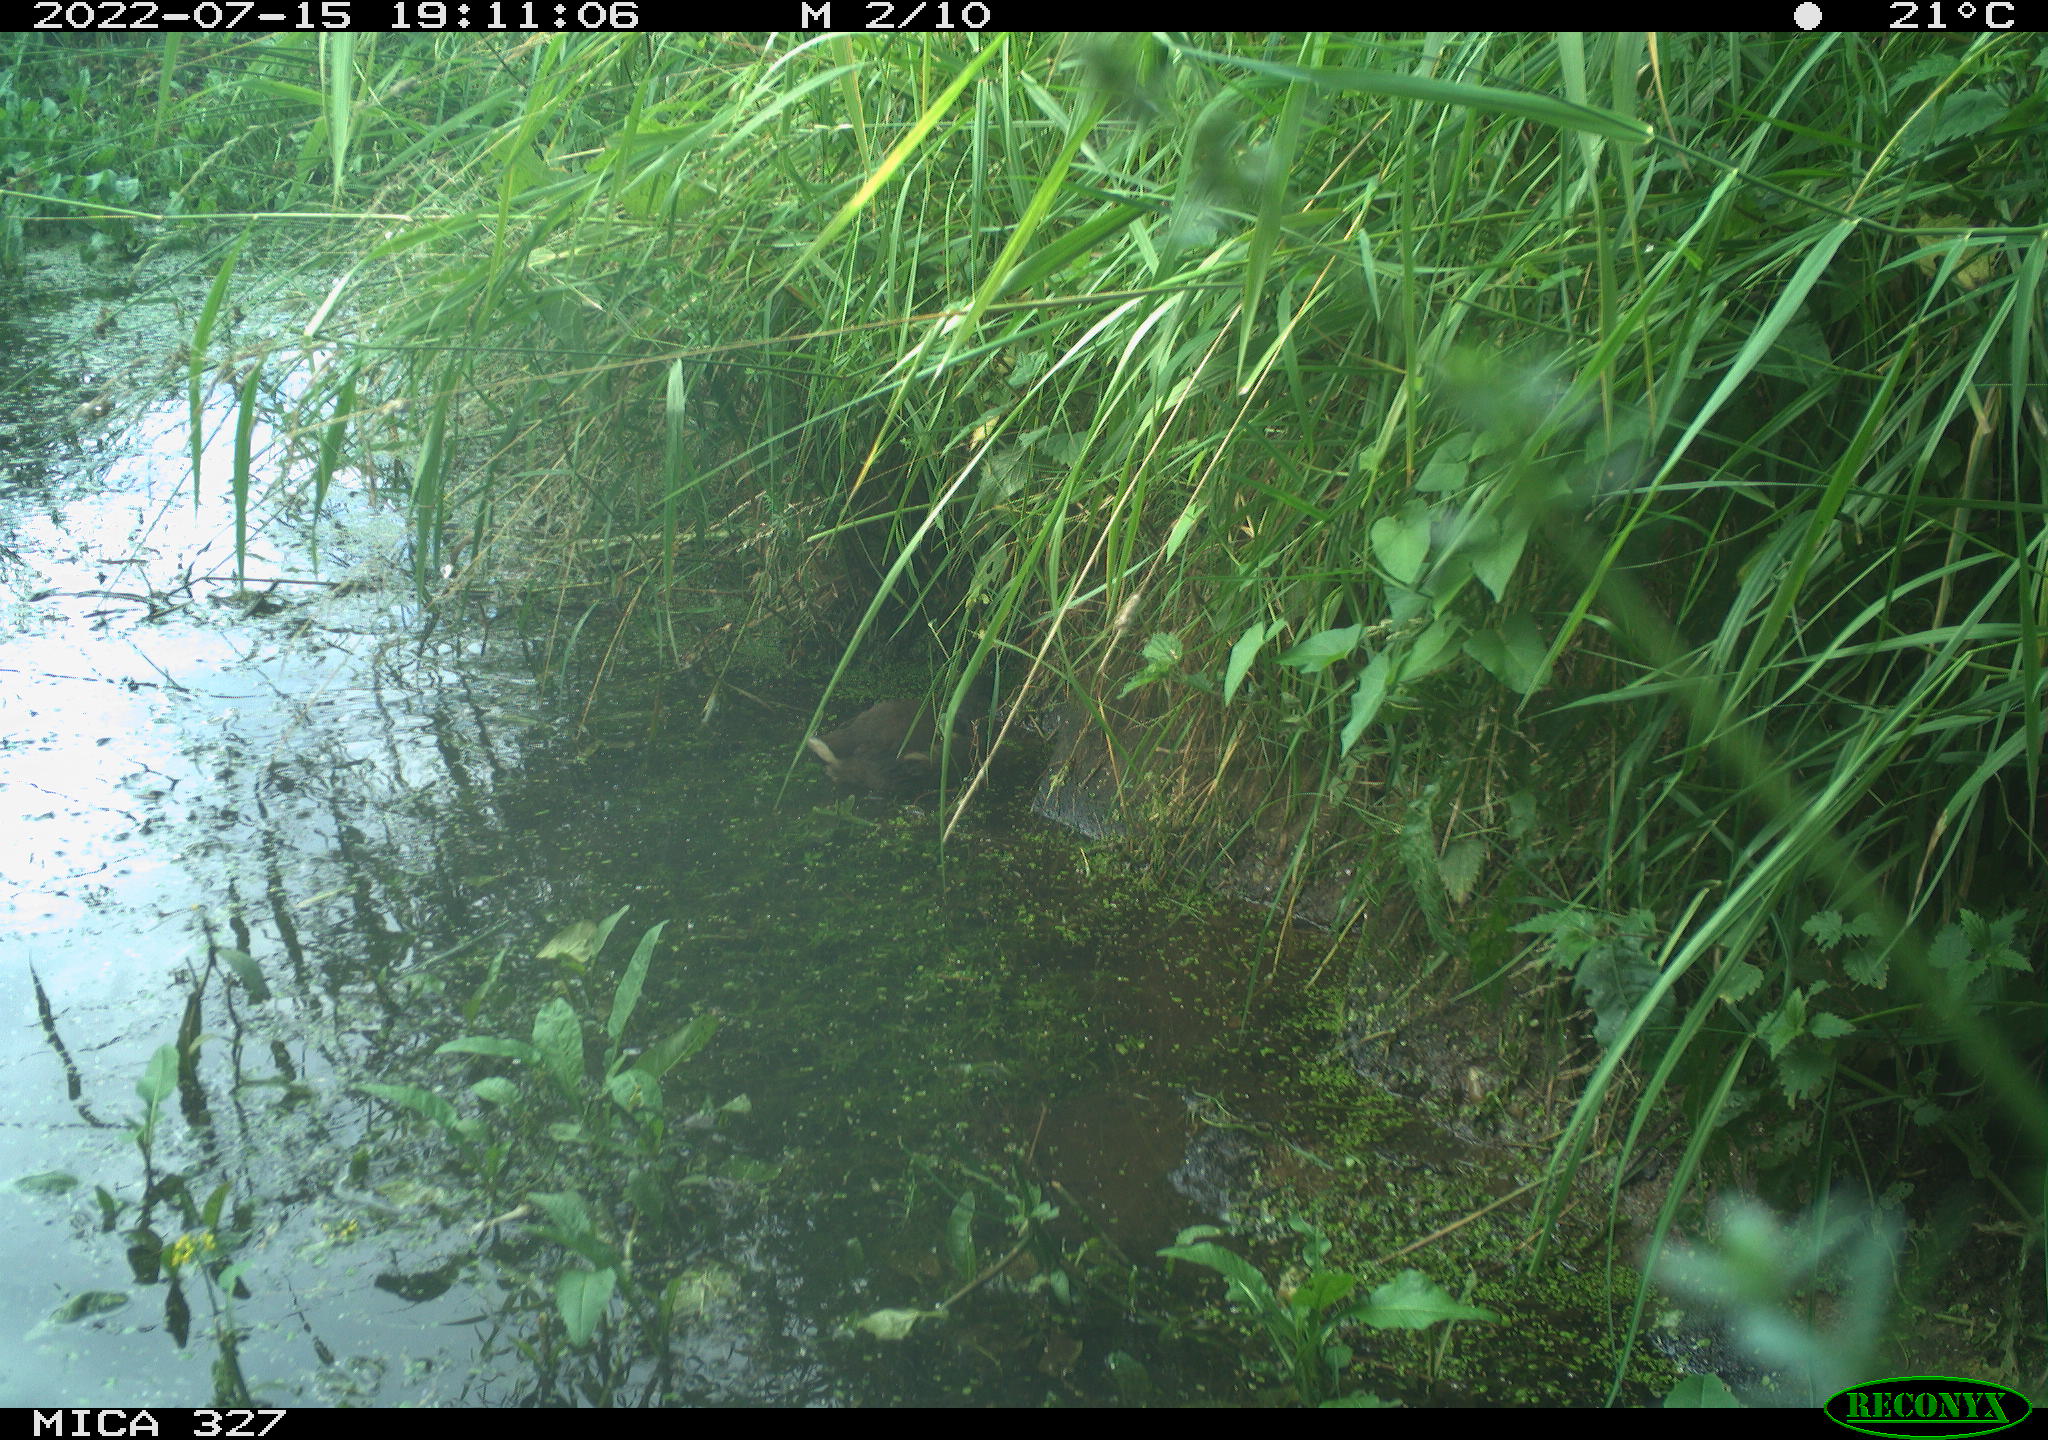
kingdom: Animalia
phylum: Chordata
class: Aves
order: Gruiformes
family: Rallidae
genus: Gallinula
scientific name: Gallinula chloropus
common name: Common moorhen
